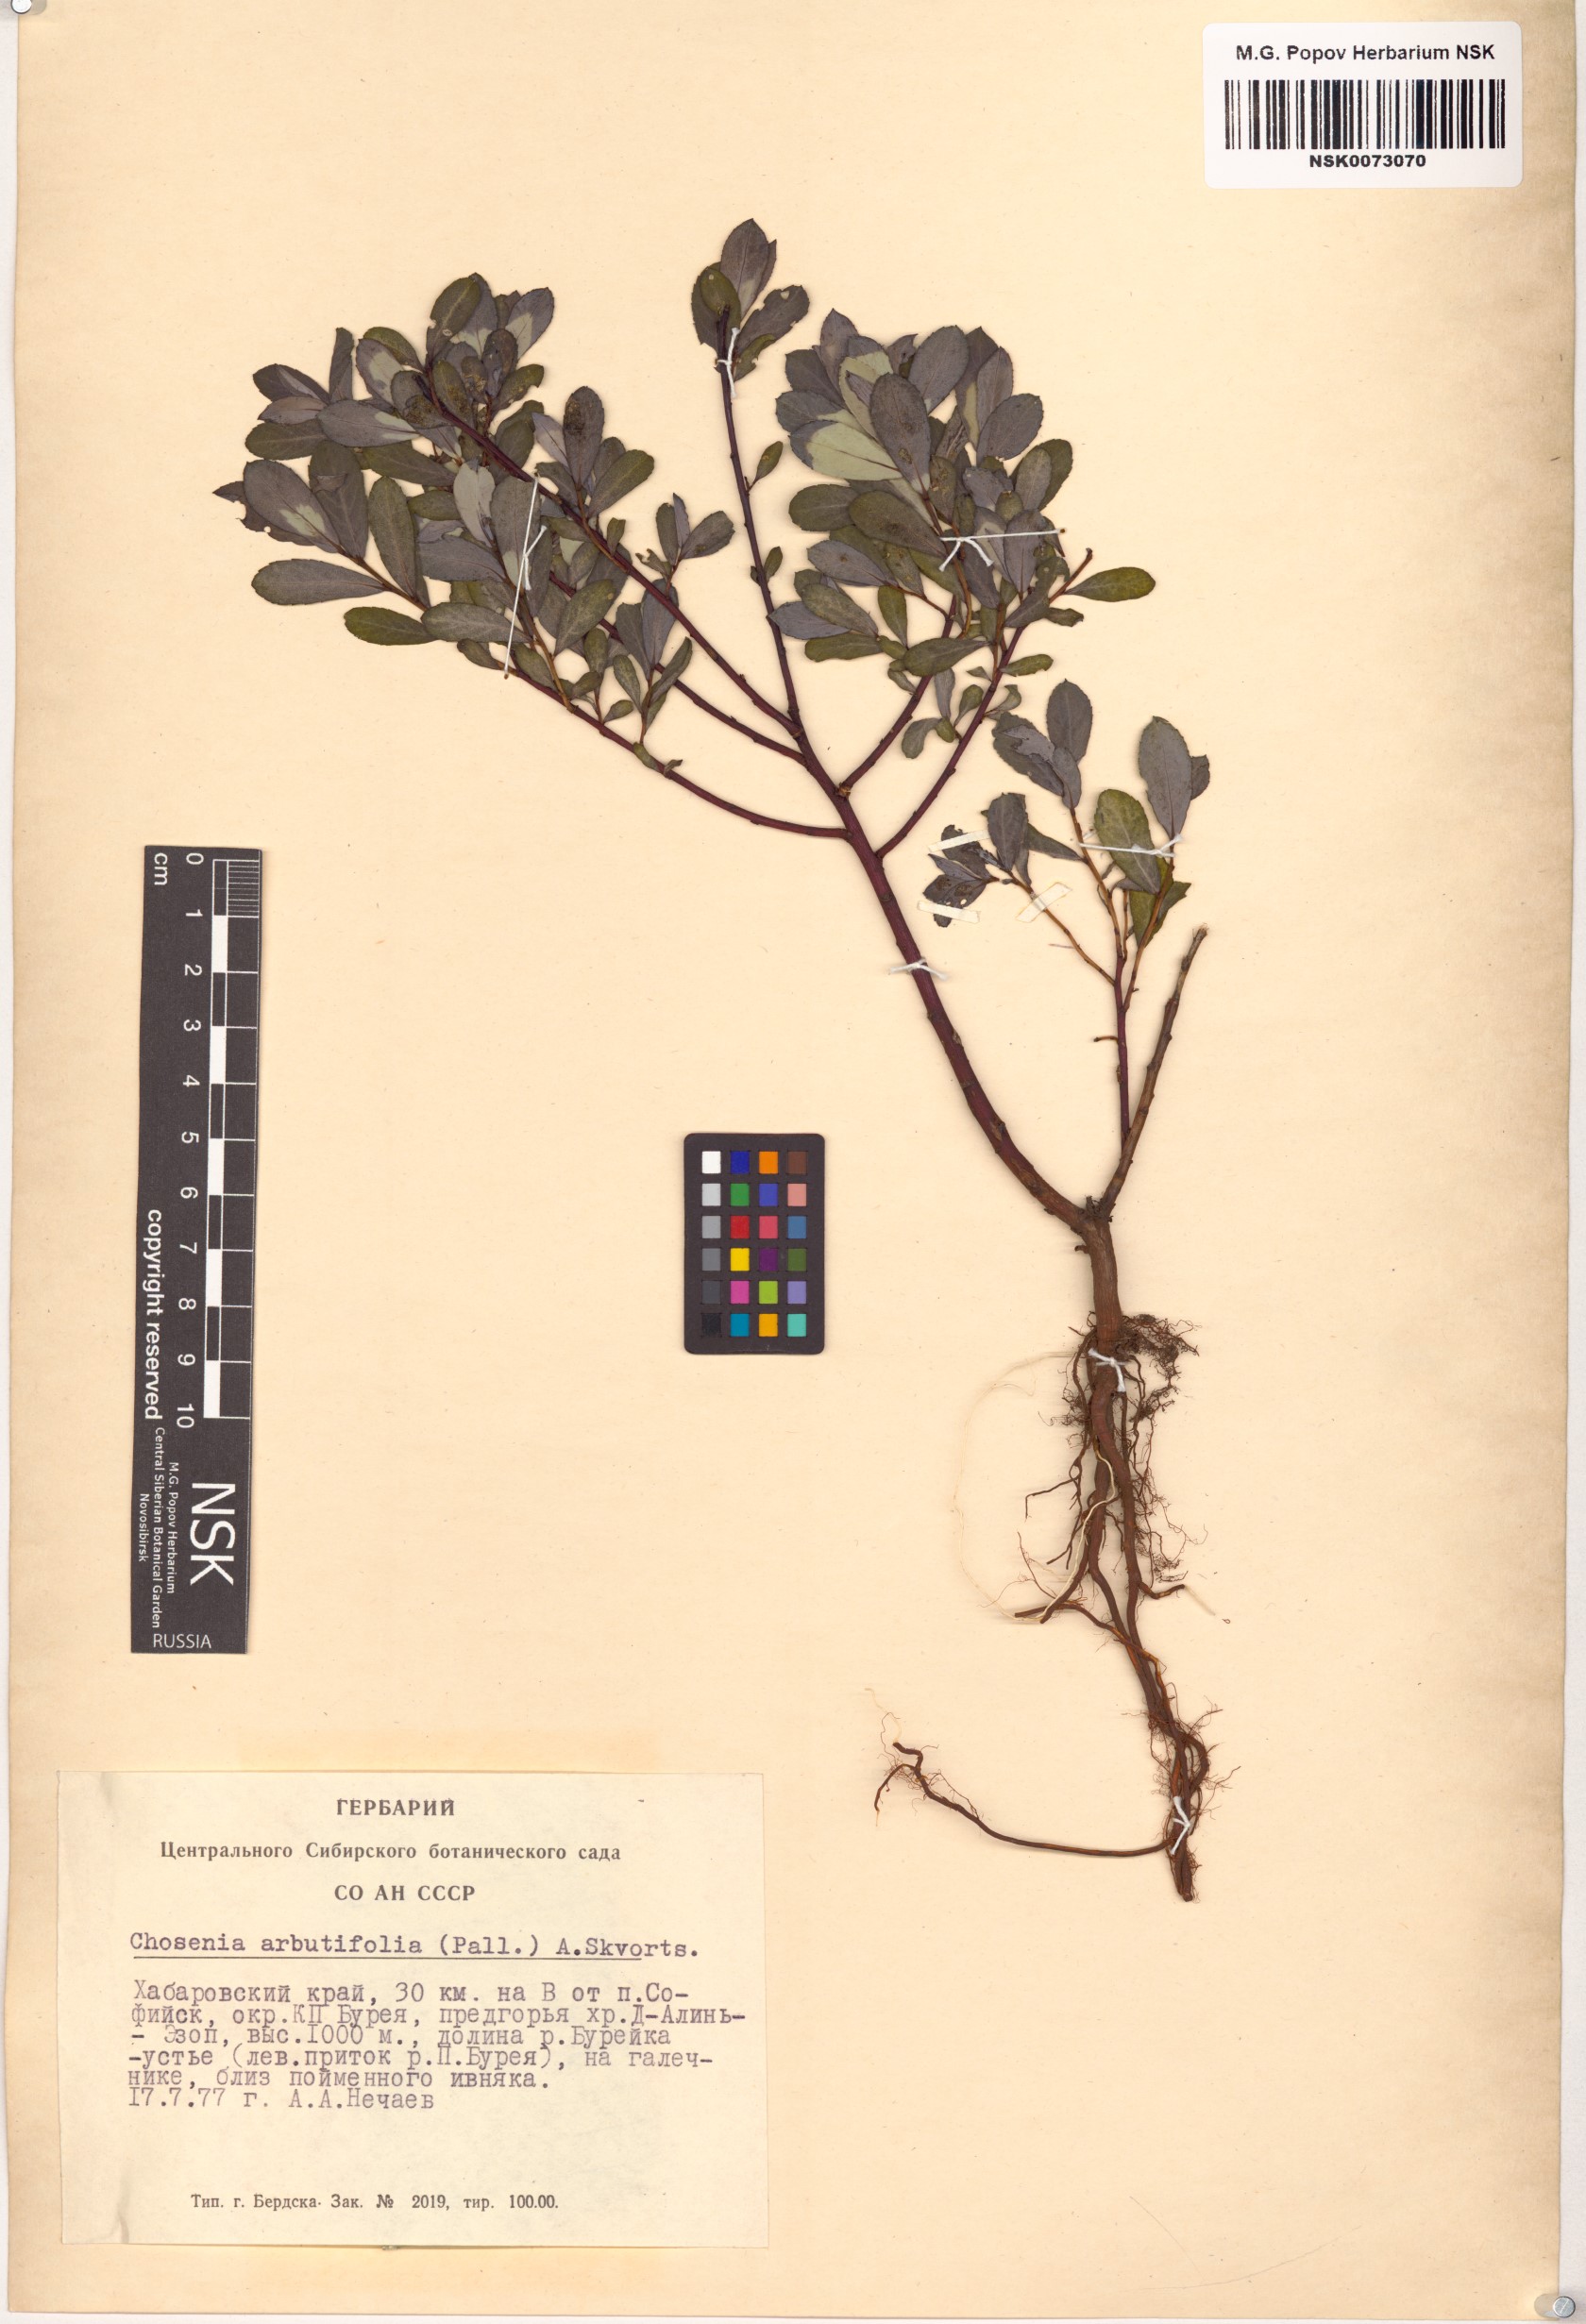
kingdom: Plantae
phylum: Tracheophyta
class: Magnoliopsida
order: Malpighiales
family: Salicaceae
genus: Chosenia
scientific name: Chosenia arbutifolia
